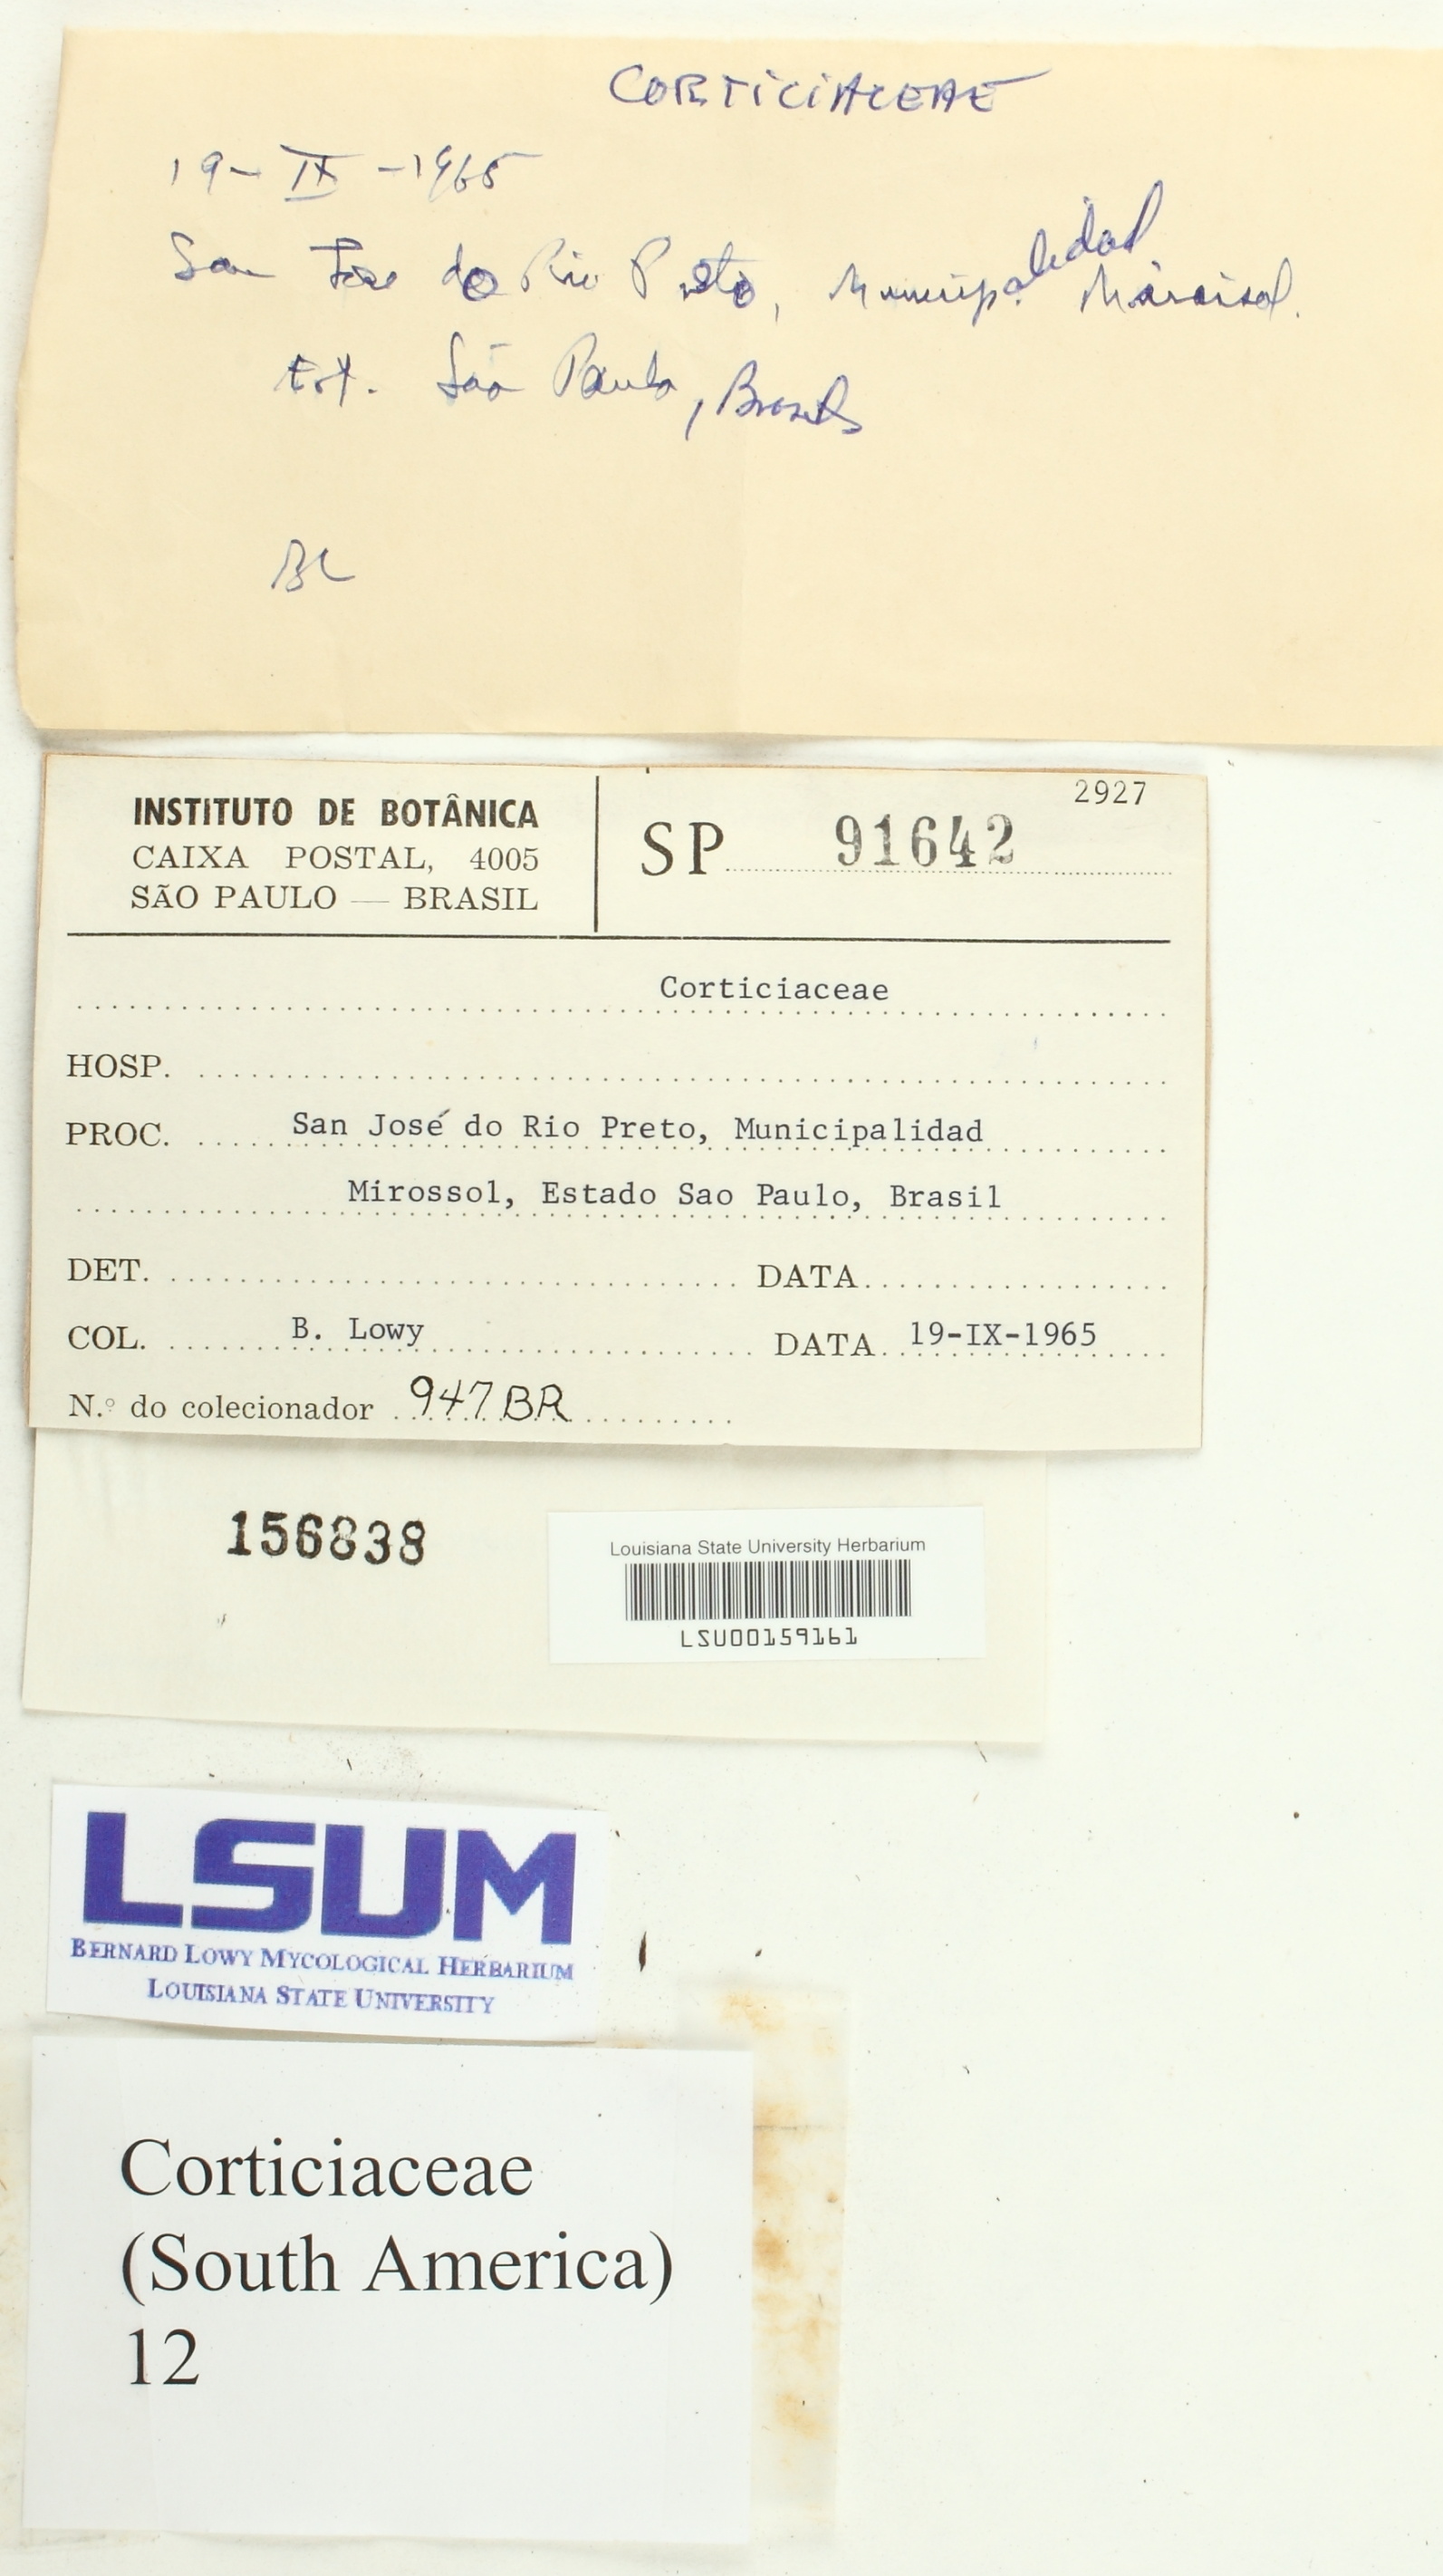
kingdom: Fungi
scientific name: Fungi
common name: Fungi
